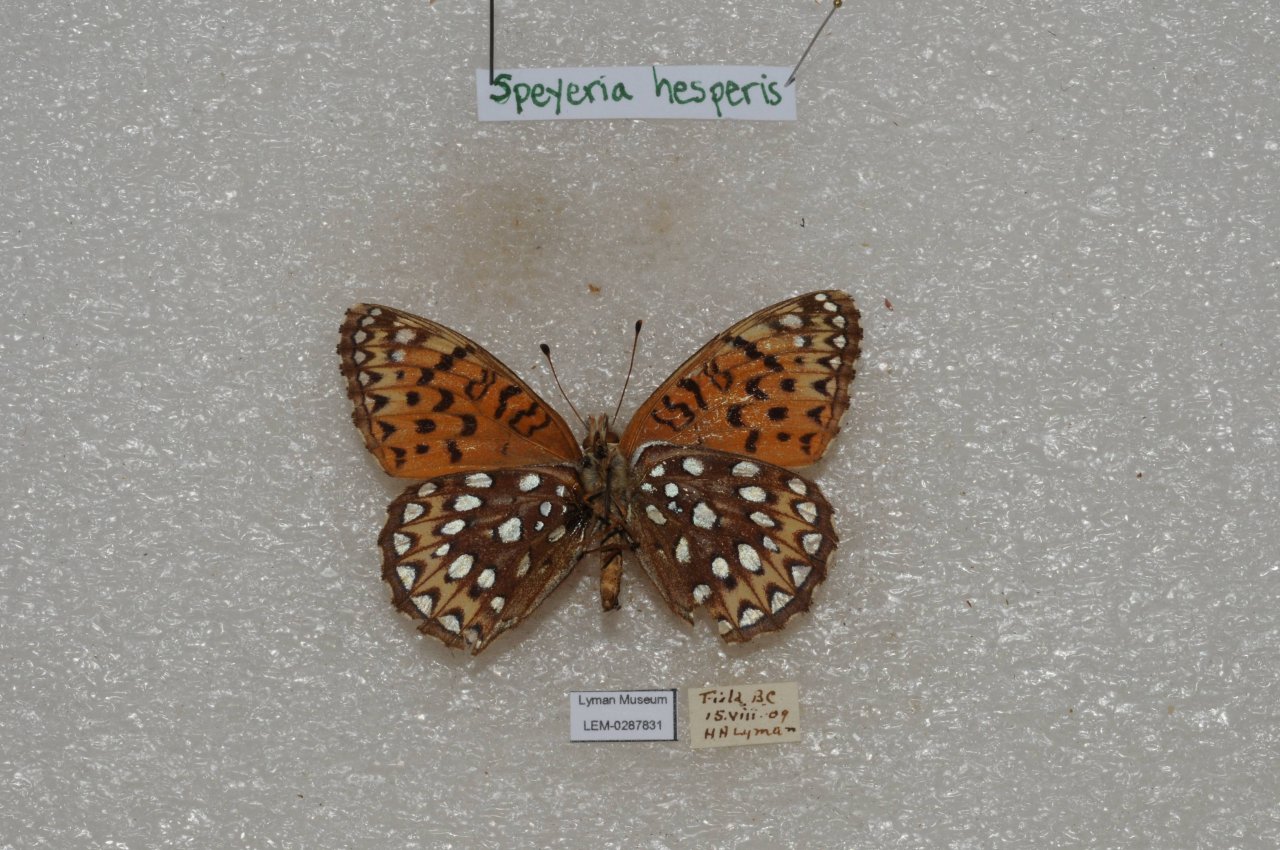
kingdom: Animalia
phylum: Arthropoda
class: Insecta
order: Lepidoptera
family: Nymphalidae
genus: Speyeria
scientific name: Speyeria atlantis
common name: Northwestern Fritillary
